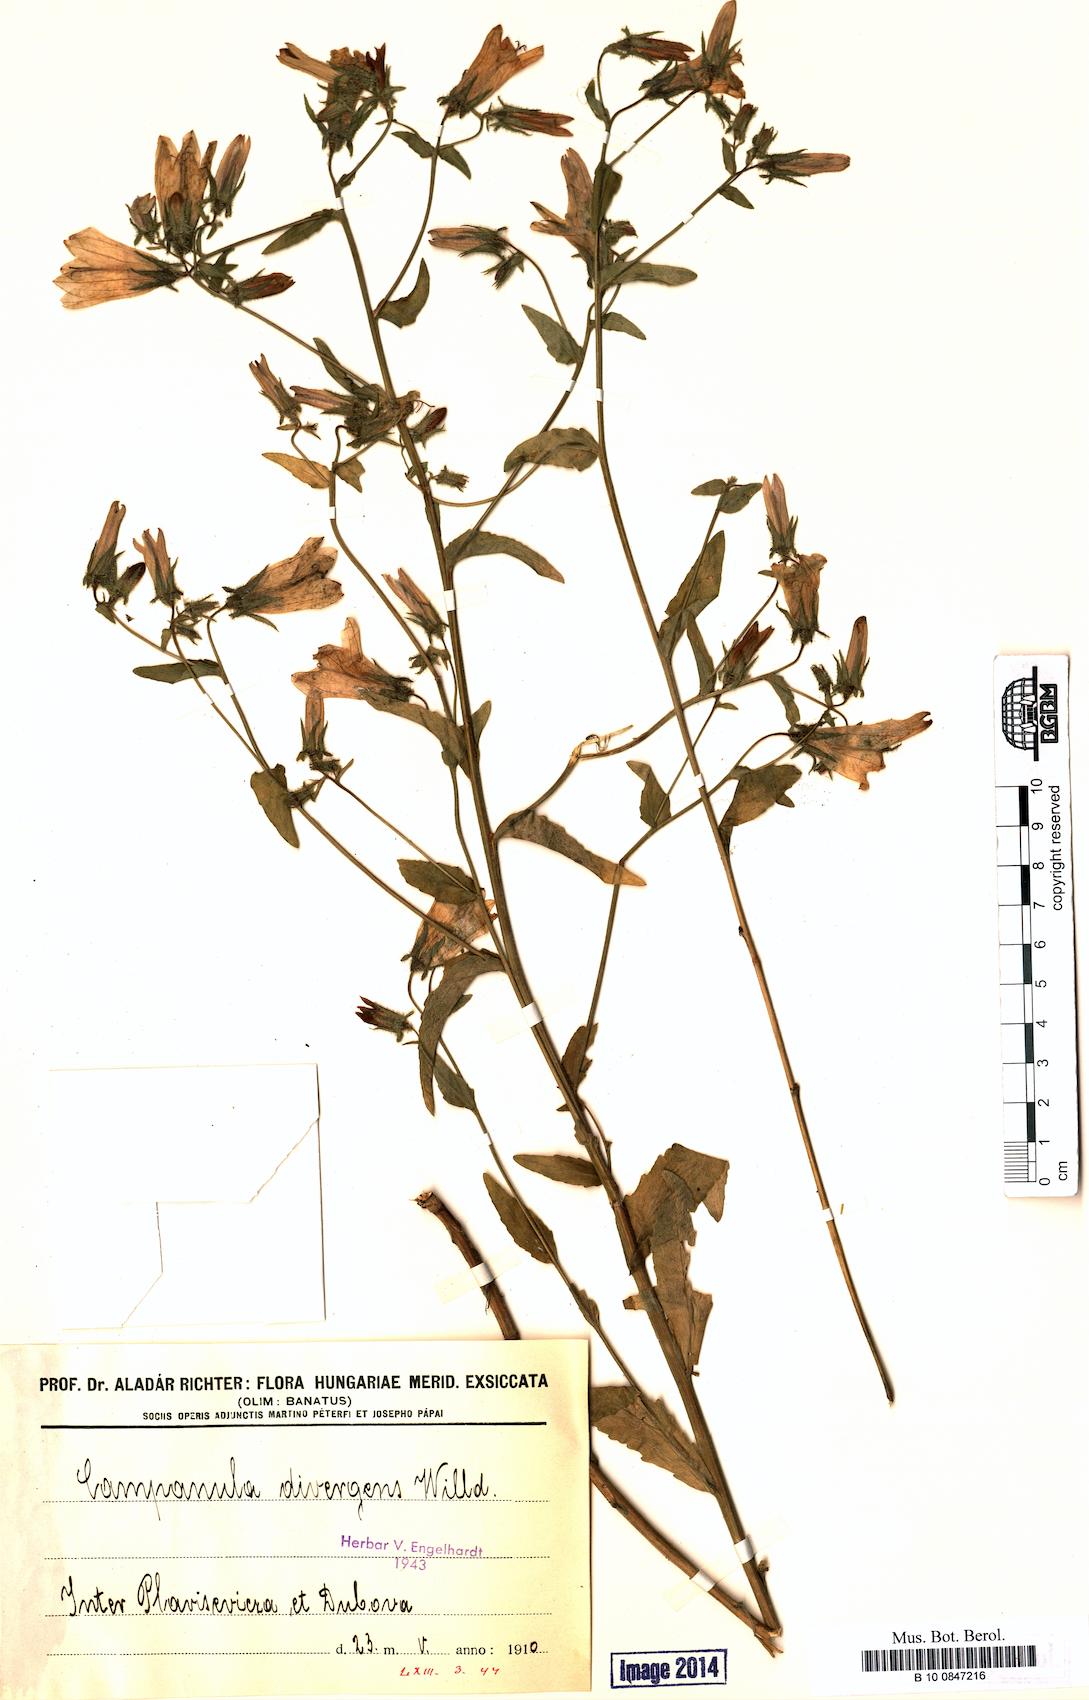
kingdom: Plantae
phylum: Tracheophyta
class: Magnoliopsida
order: Asterales
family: Campanulaceae
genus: Campanula
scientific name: Campanula sibirica
